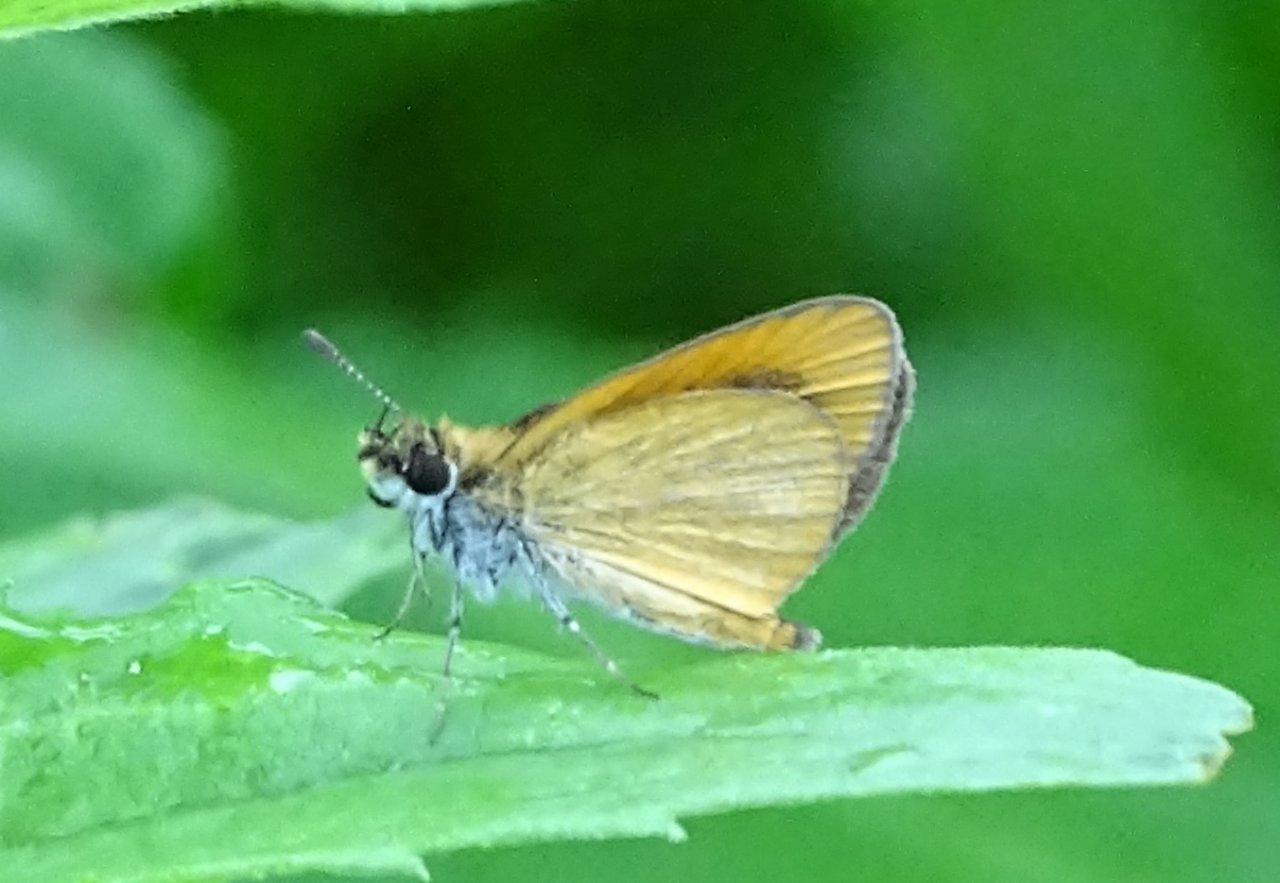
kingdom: Animalia
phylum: Arthropoda
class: Insecta
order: Lepidoptera
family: Hesperiidae
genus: Ancyloxypha
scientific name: Ancyloxypha numitor
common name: Least Skipper
